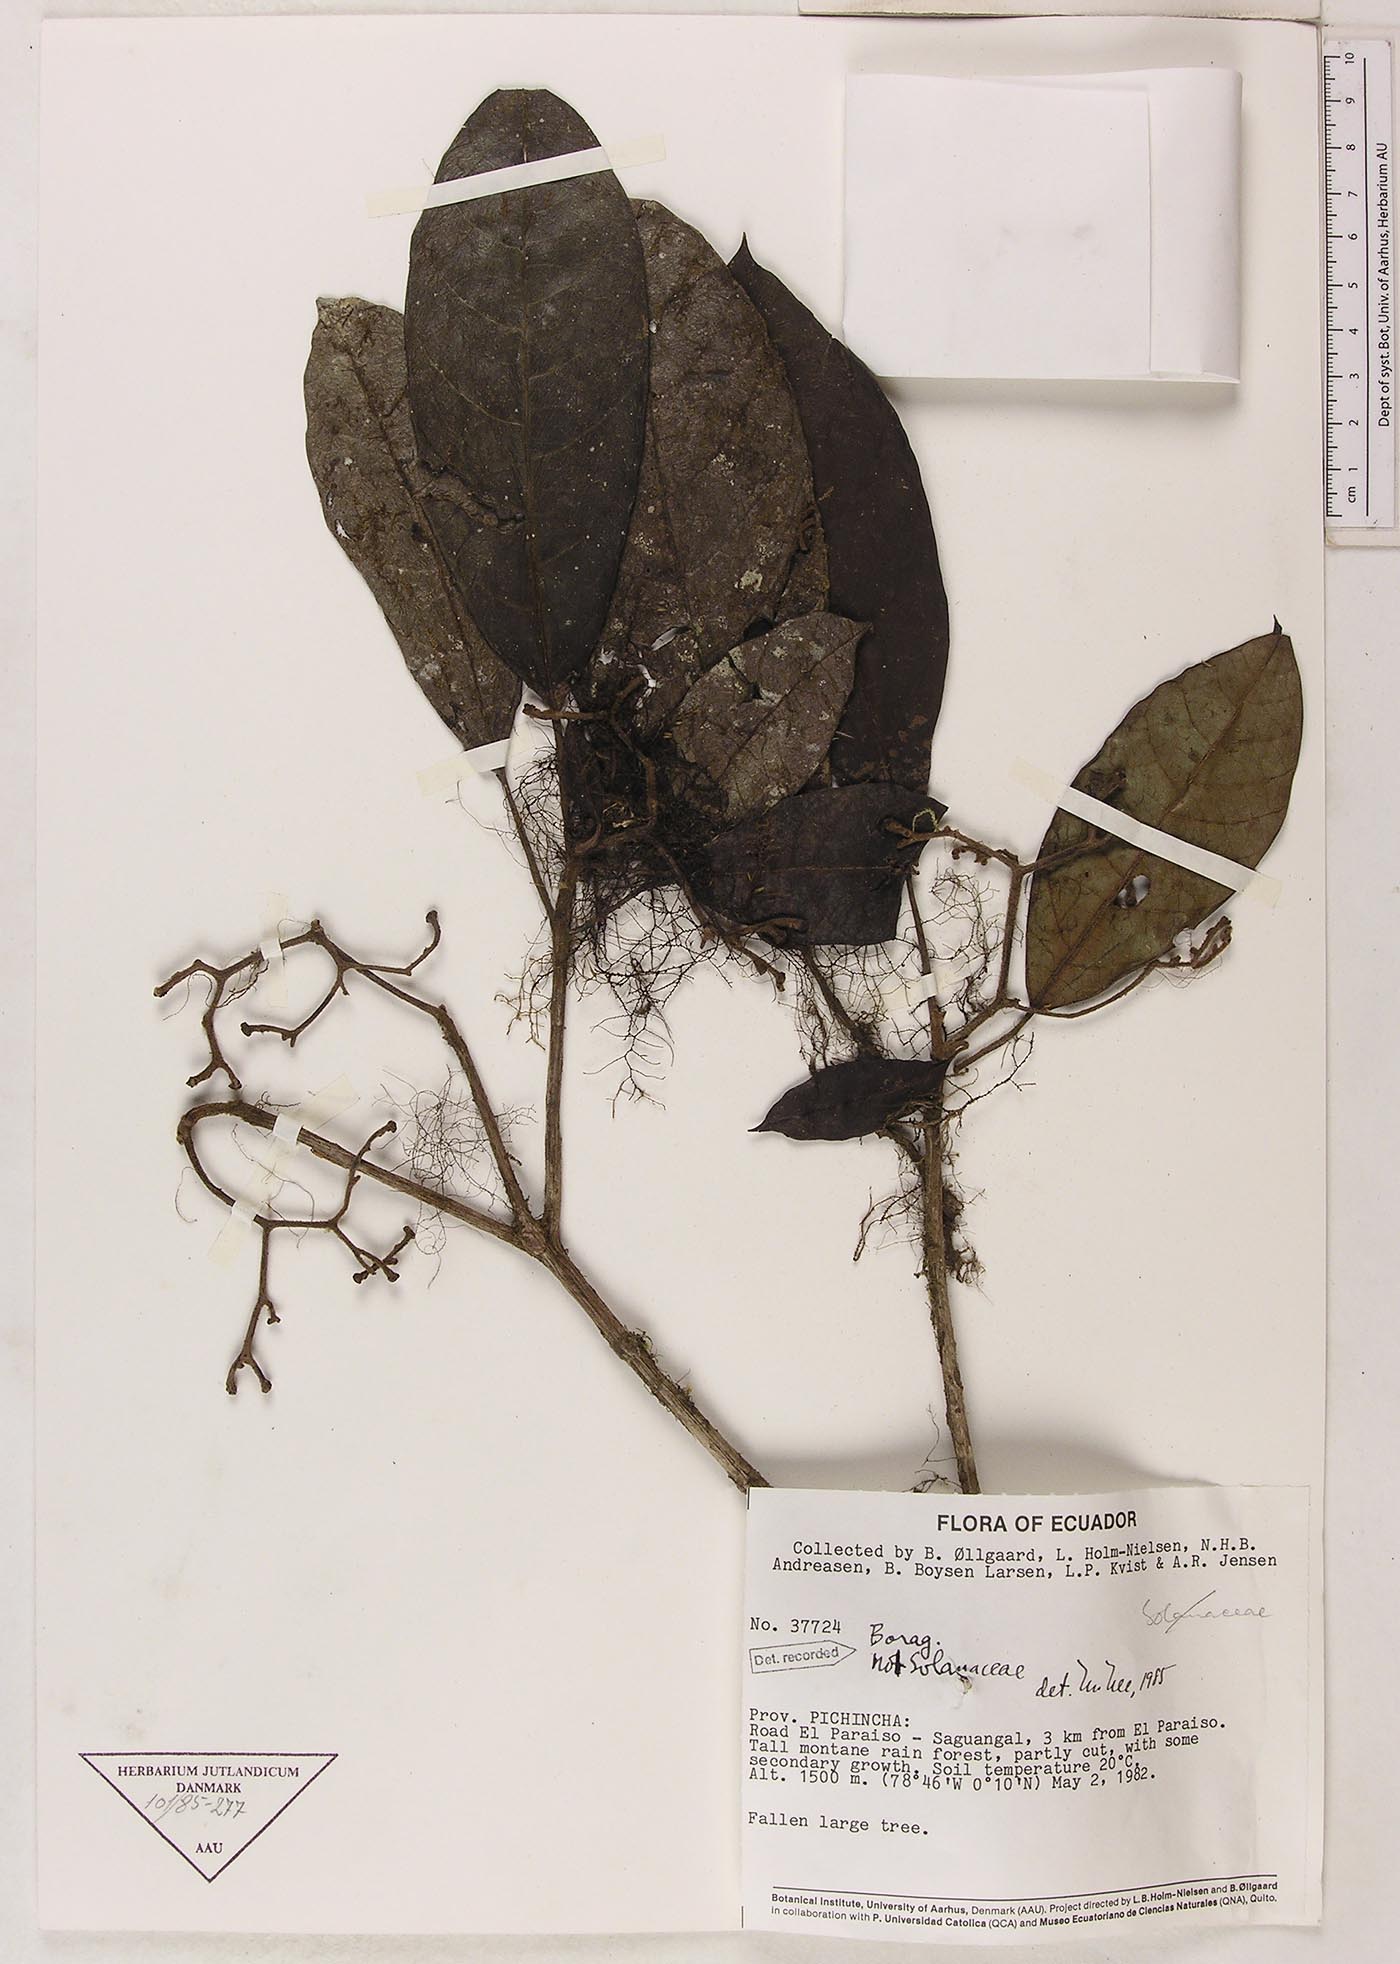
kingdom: Plantae
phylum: Tracheophyta
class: Magnoliopsida
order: Boraginales
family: Cordiaceae
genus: Cordia
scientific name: Cordia
